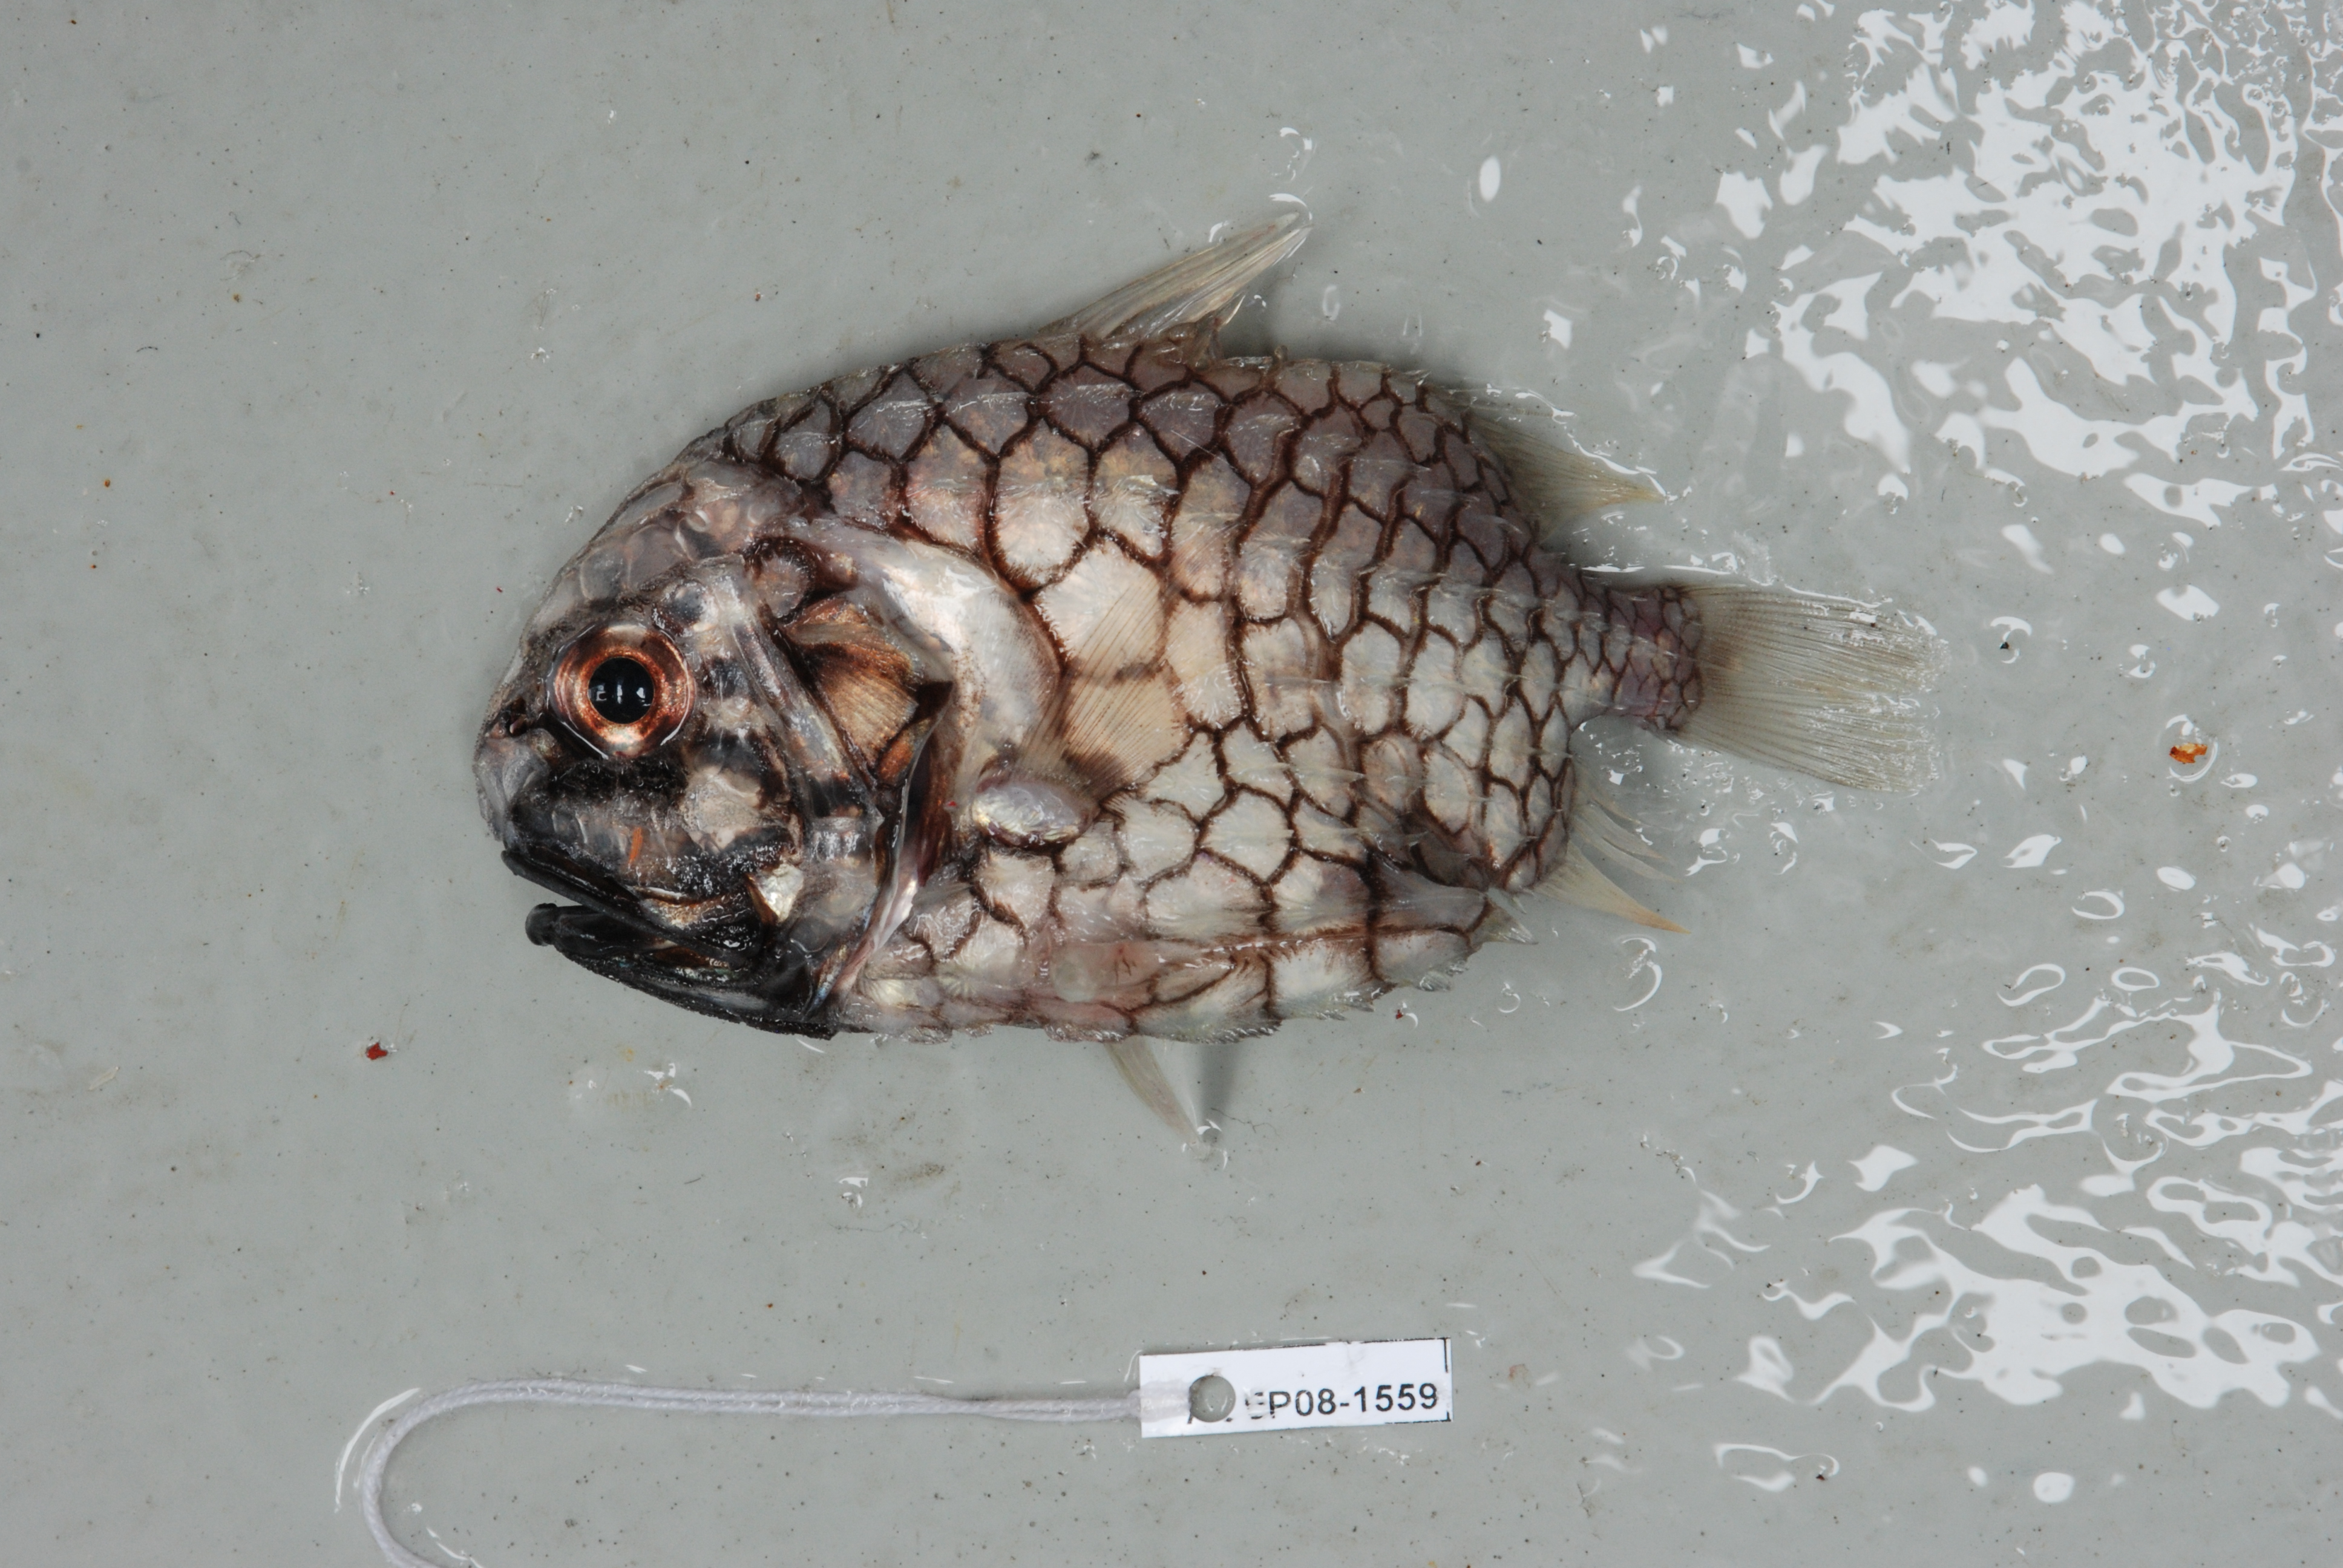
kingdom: Animalia
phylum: Chordata
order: Beryciformes
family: Monocentridae
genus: Monocentris
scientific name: Monocentris japonica
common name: Pineconefish
